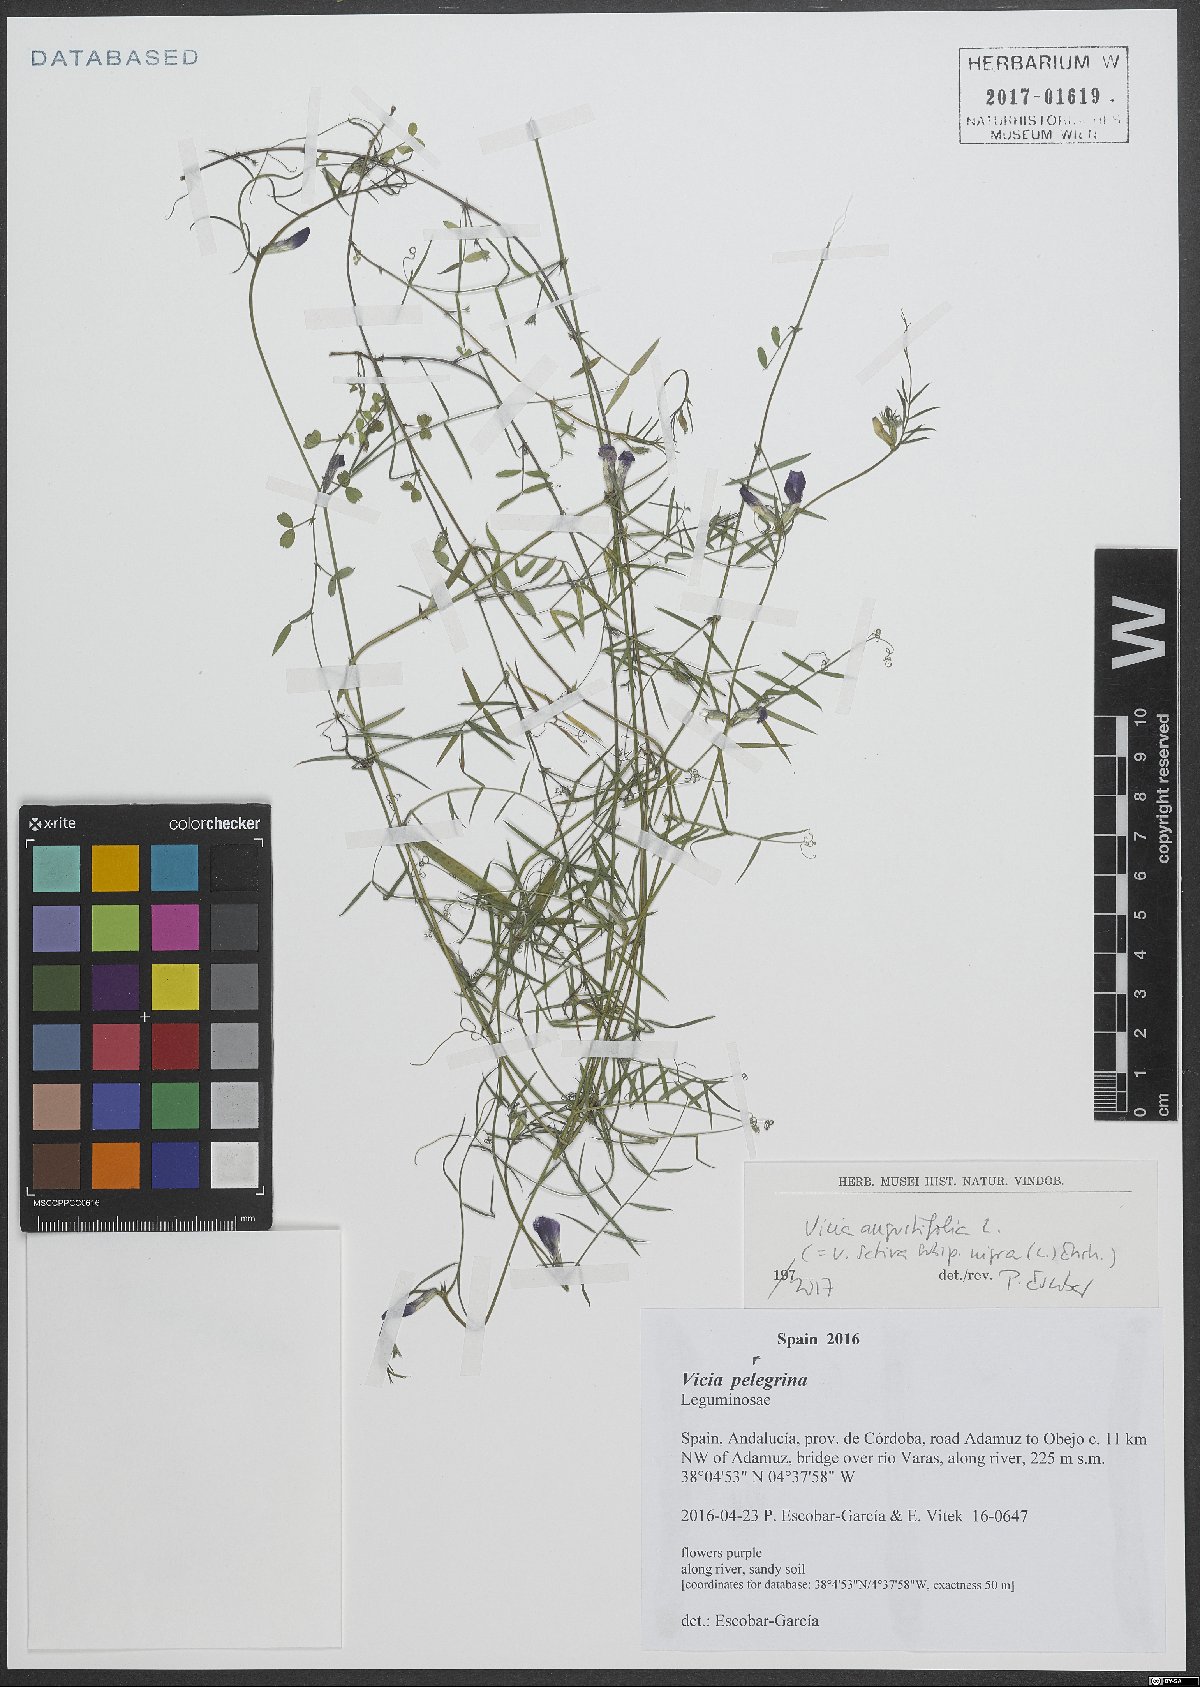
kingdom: Plantae
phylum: Tracheophyta
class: Magnoliopsida
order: Fabales
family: Fabaceae
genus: Vicia
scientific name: Vicia sativa
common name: Garden vetch
